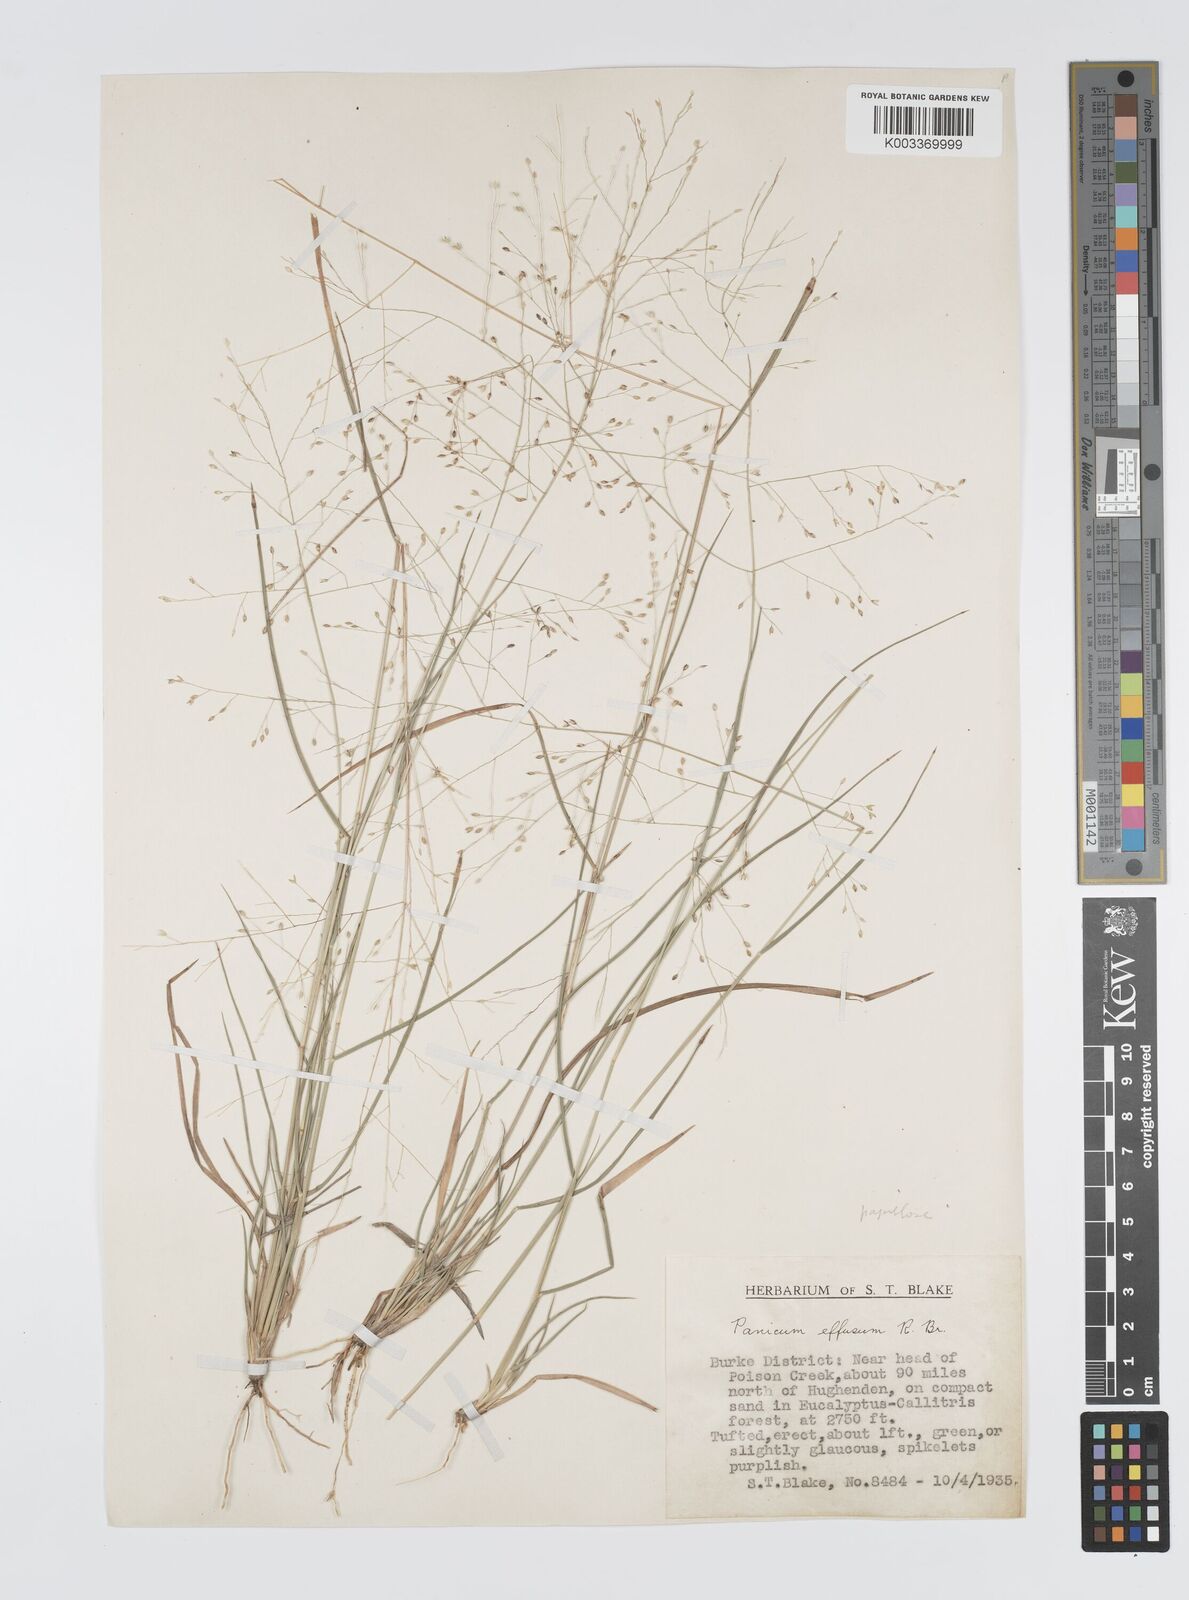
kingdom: Plantae
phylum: Tracheophyta
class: Liliopsida
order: Poales
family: Poaceae
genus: Panicum
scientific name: Panicum effusum
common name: Hairy panic grass
